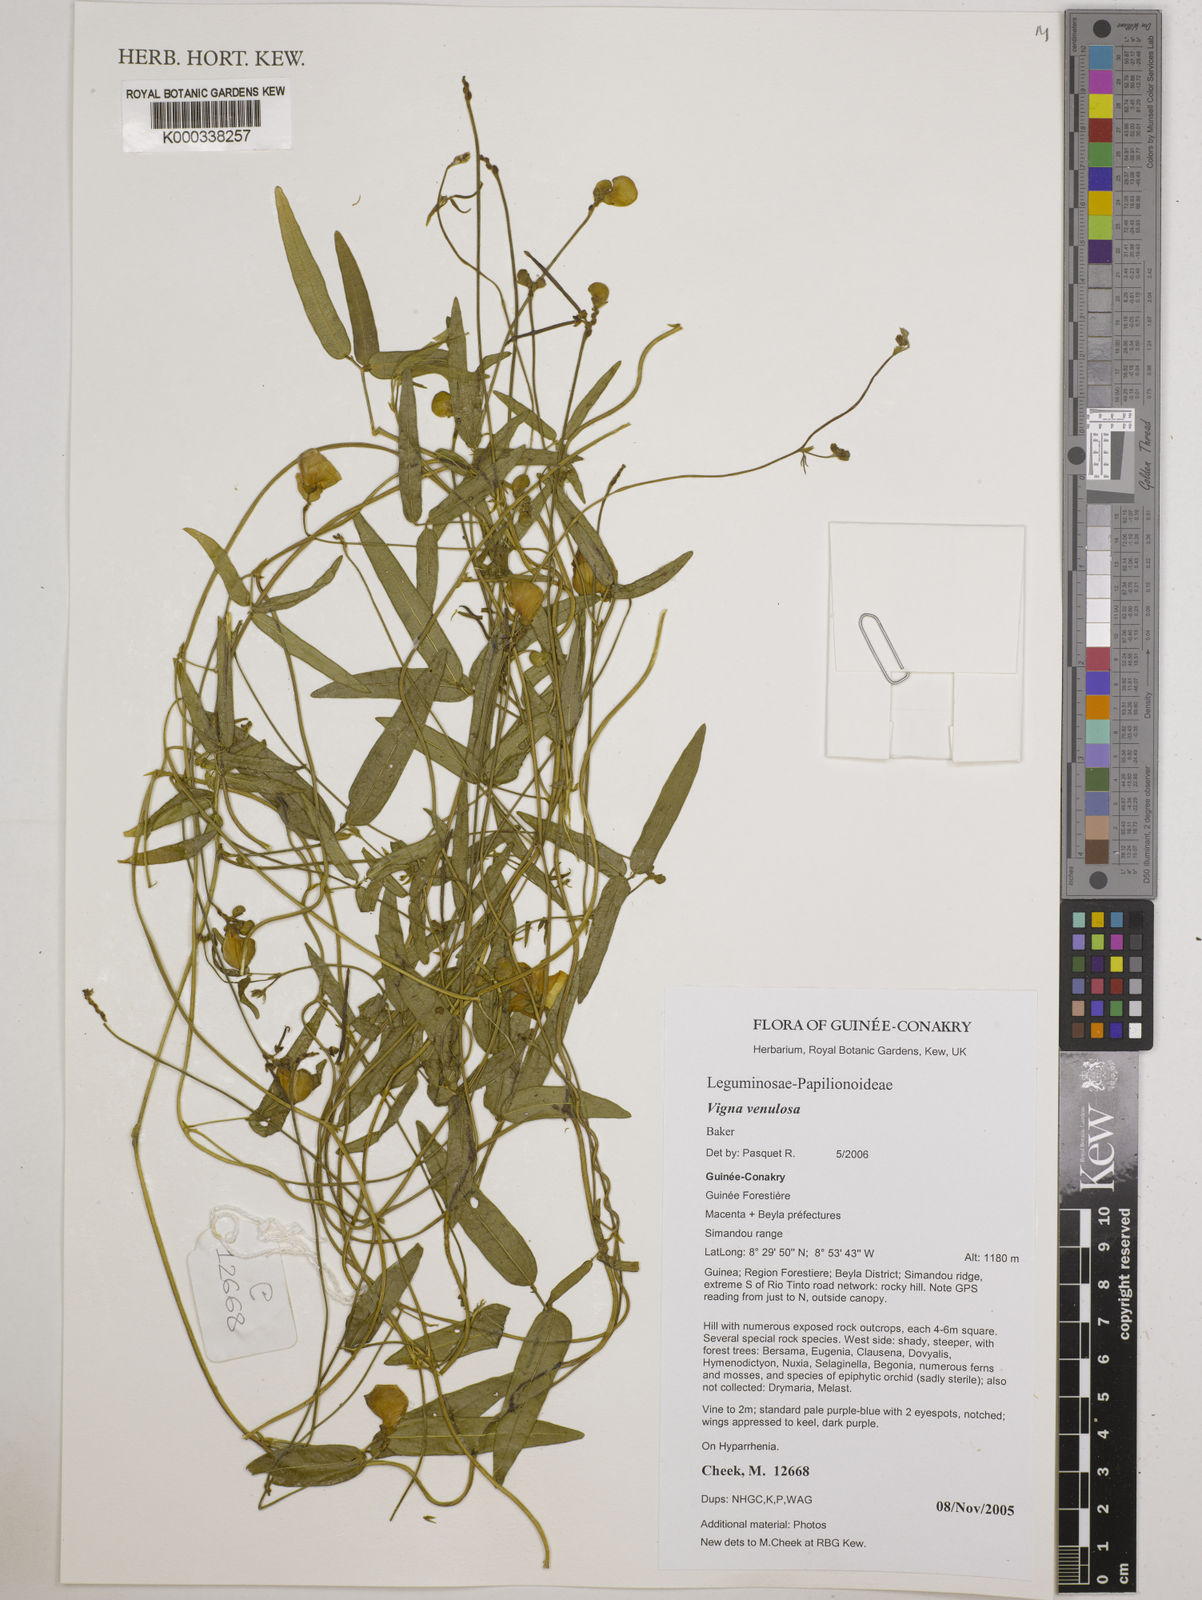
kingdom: Plantae
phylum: Tracheophyta
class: Magnoliopsida
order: Fabales
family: Fabaceae
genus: Vigna
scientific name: Vigna venulosa
